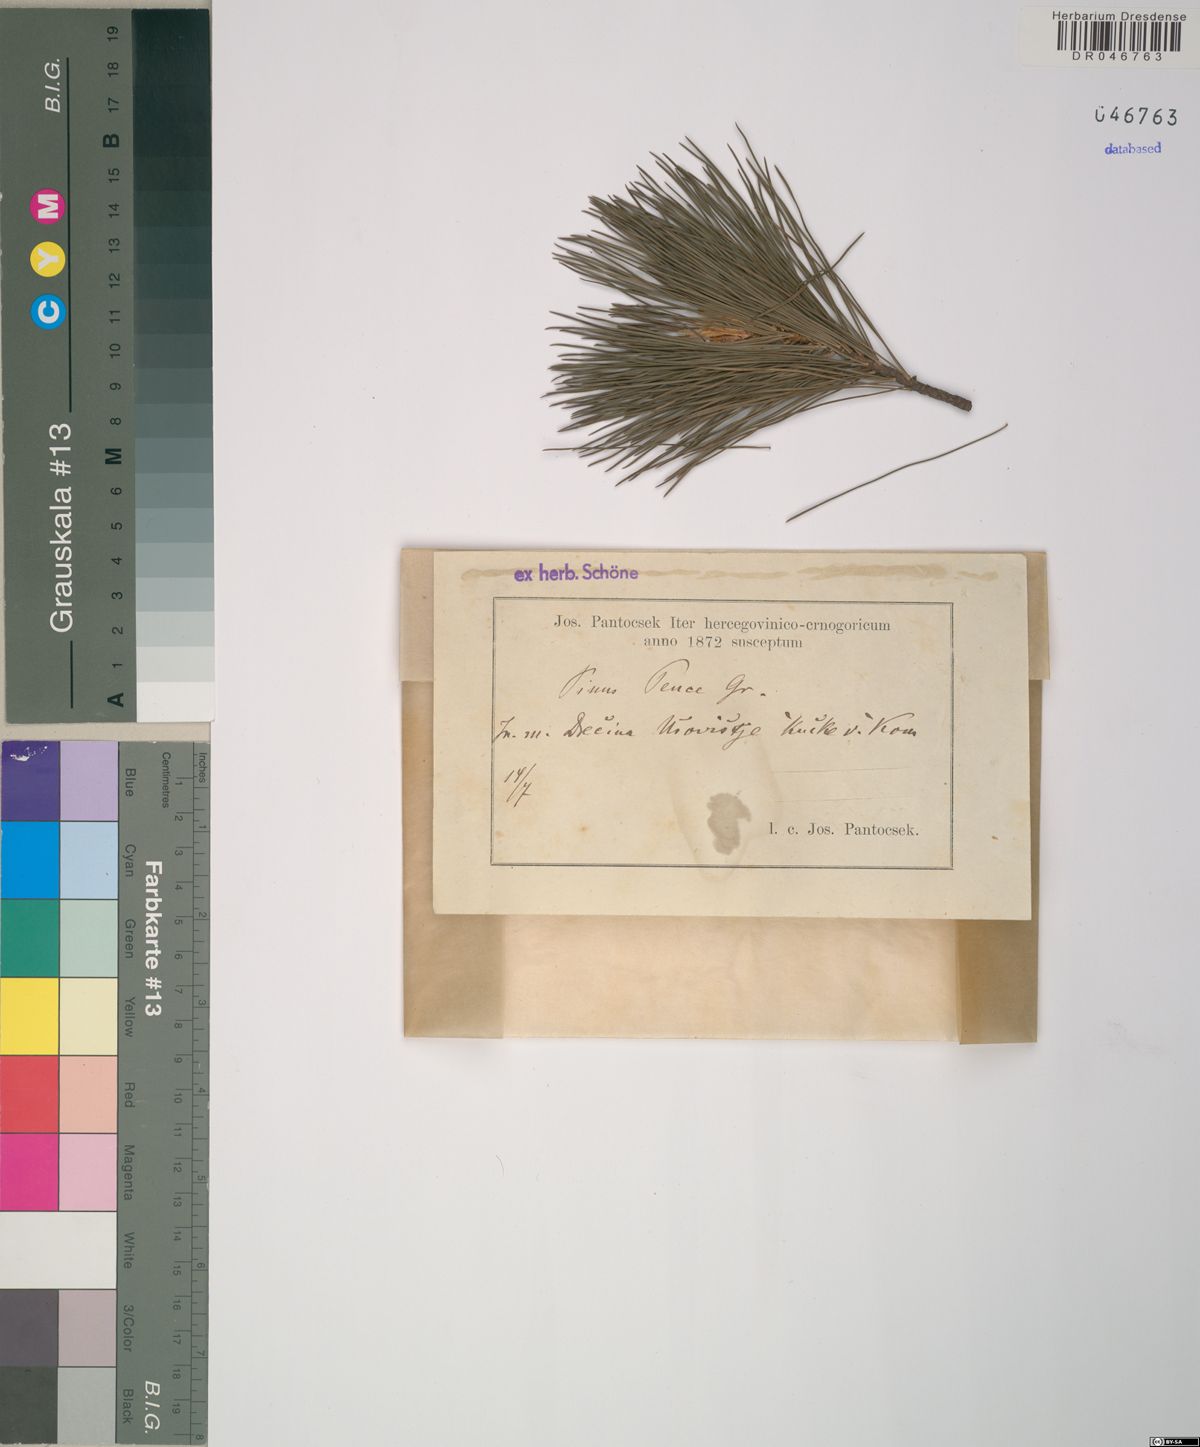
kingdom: Plantae
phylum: Tracheophyta
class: Pinopsida
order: Pinales
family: Pinaceae
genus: Pinus
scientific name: Pinus peuce
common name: Macedonian pine
